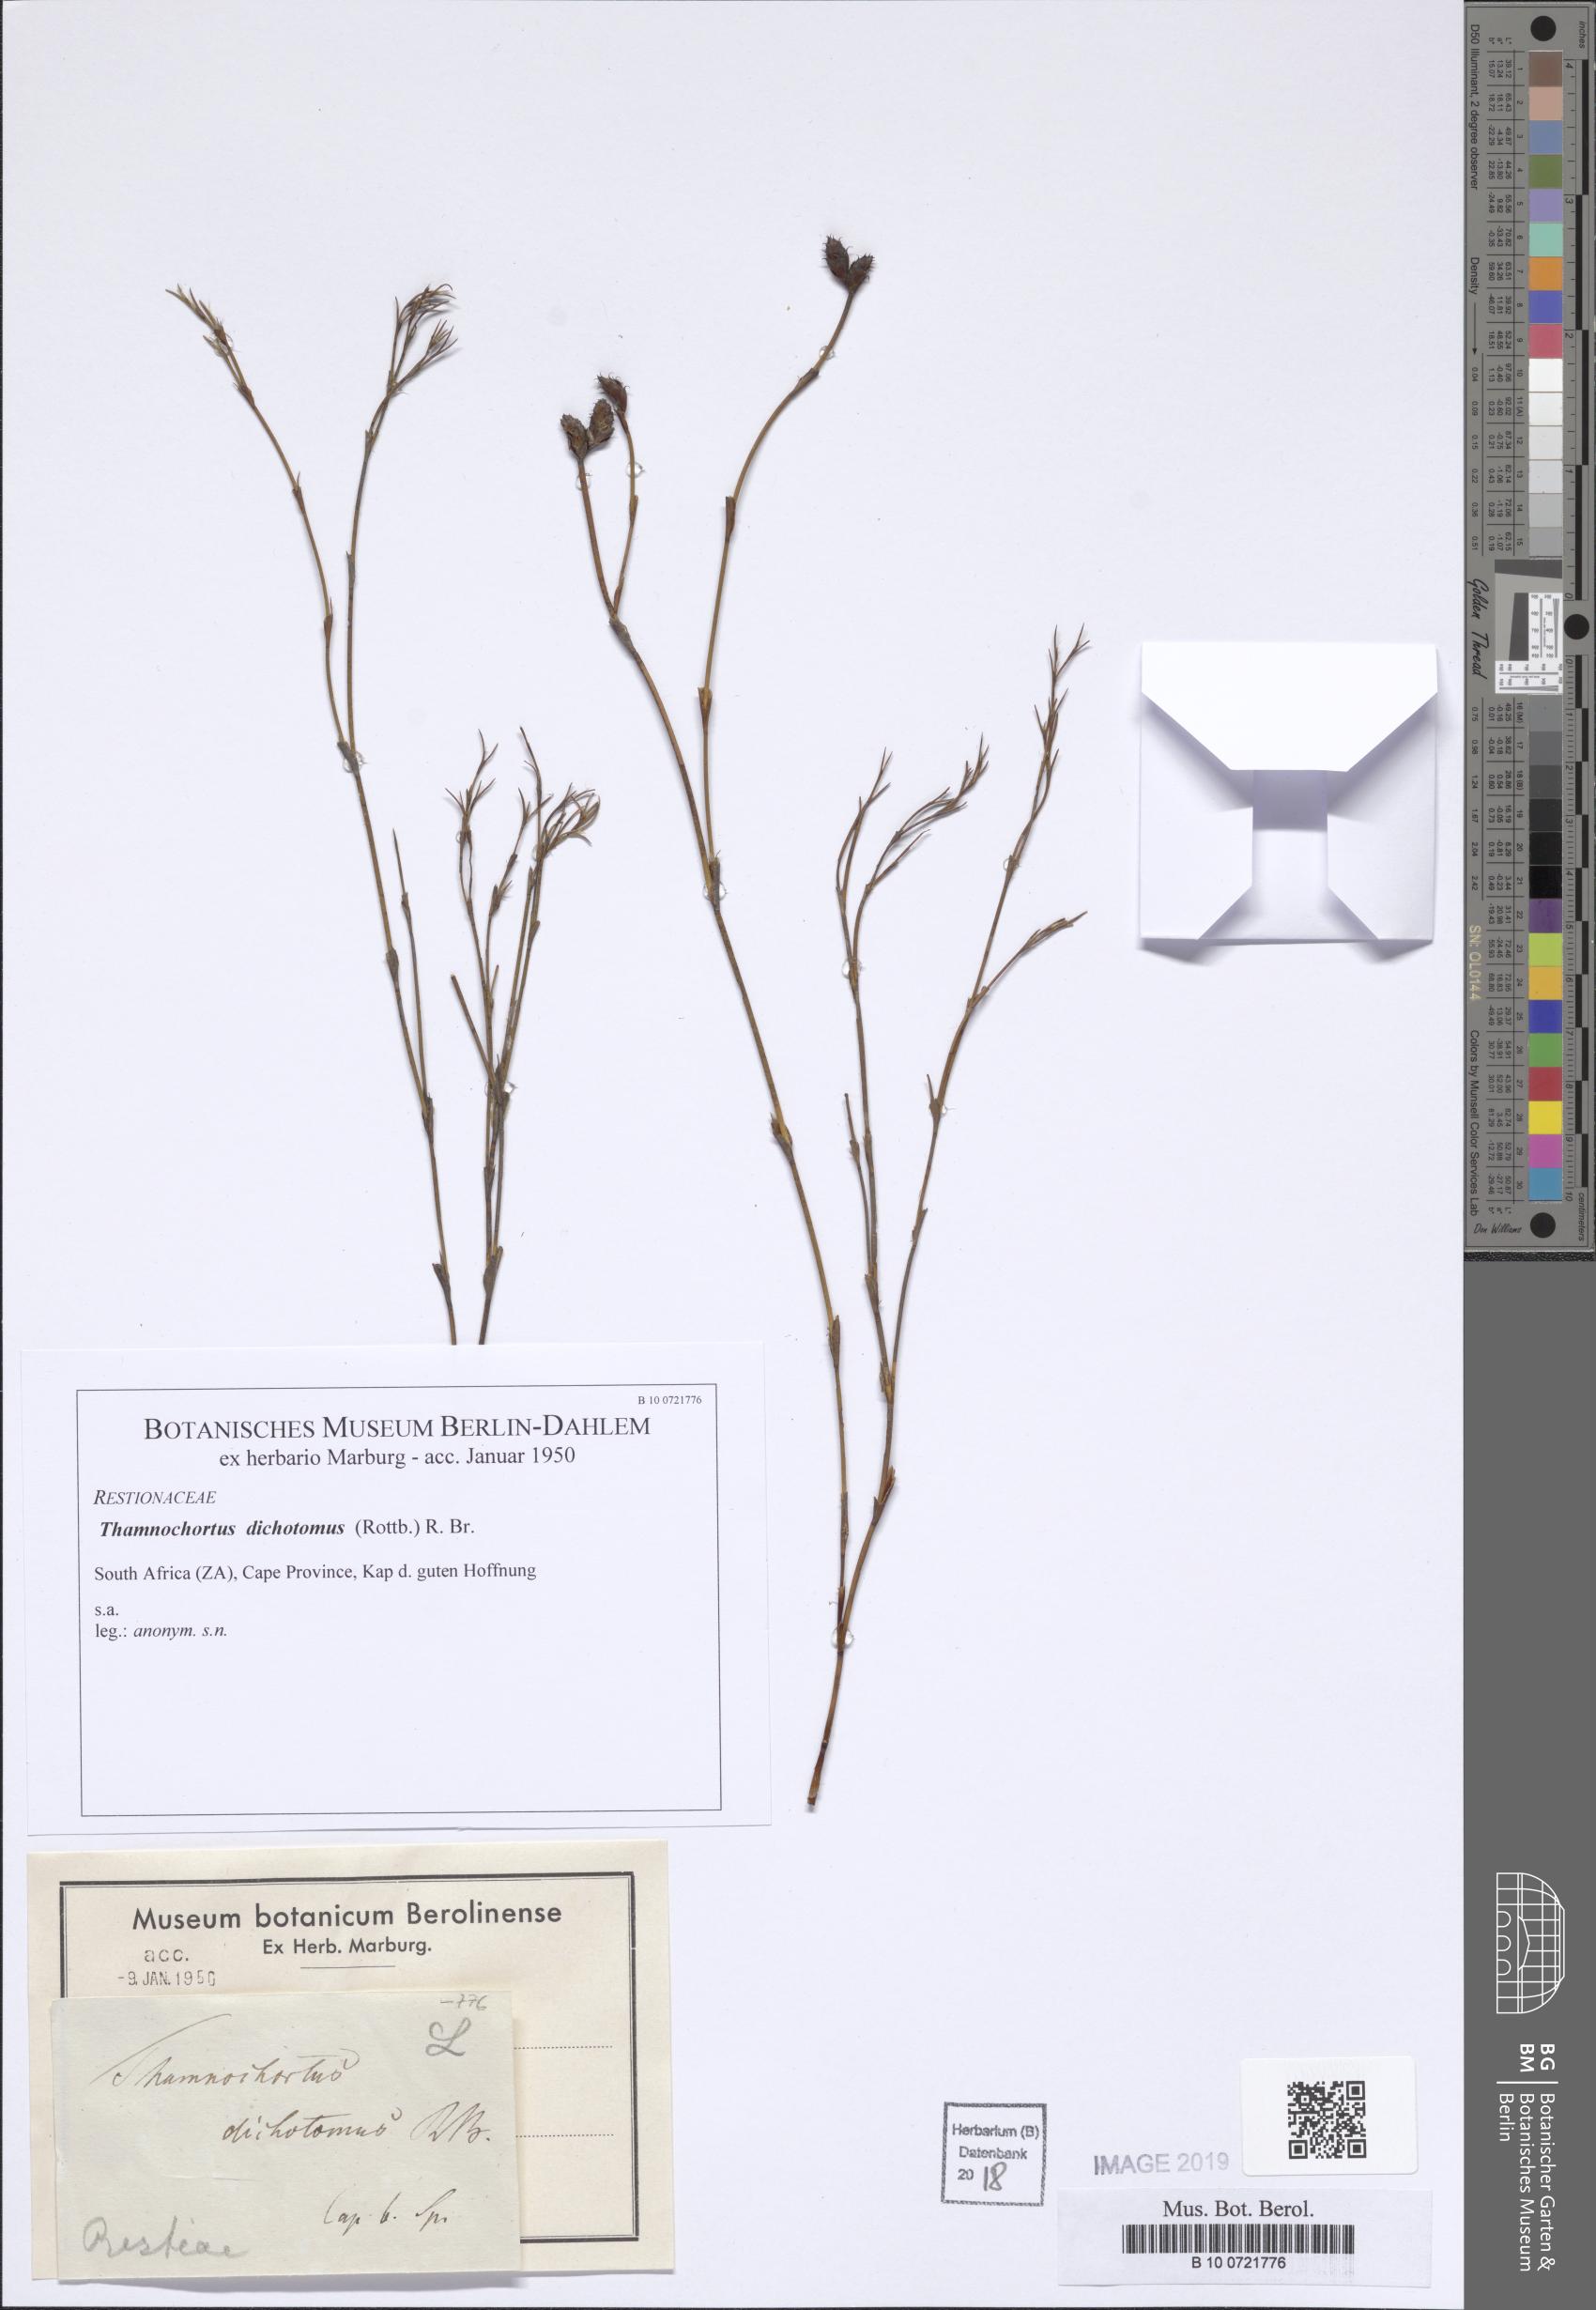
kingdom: Plantae
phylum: Tracheophyta
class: Liliopsida
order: Poales
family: Restionaceae
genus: Restio
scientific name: Restio capensis
